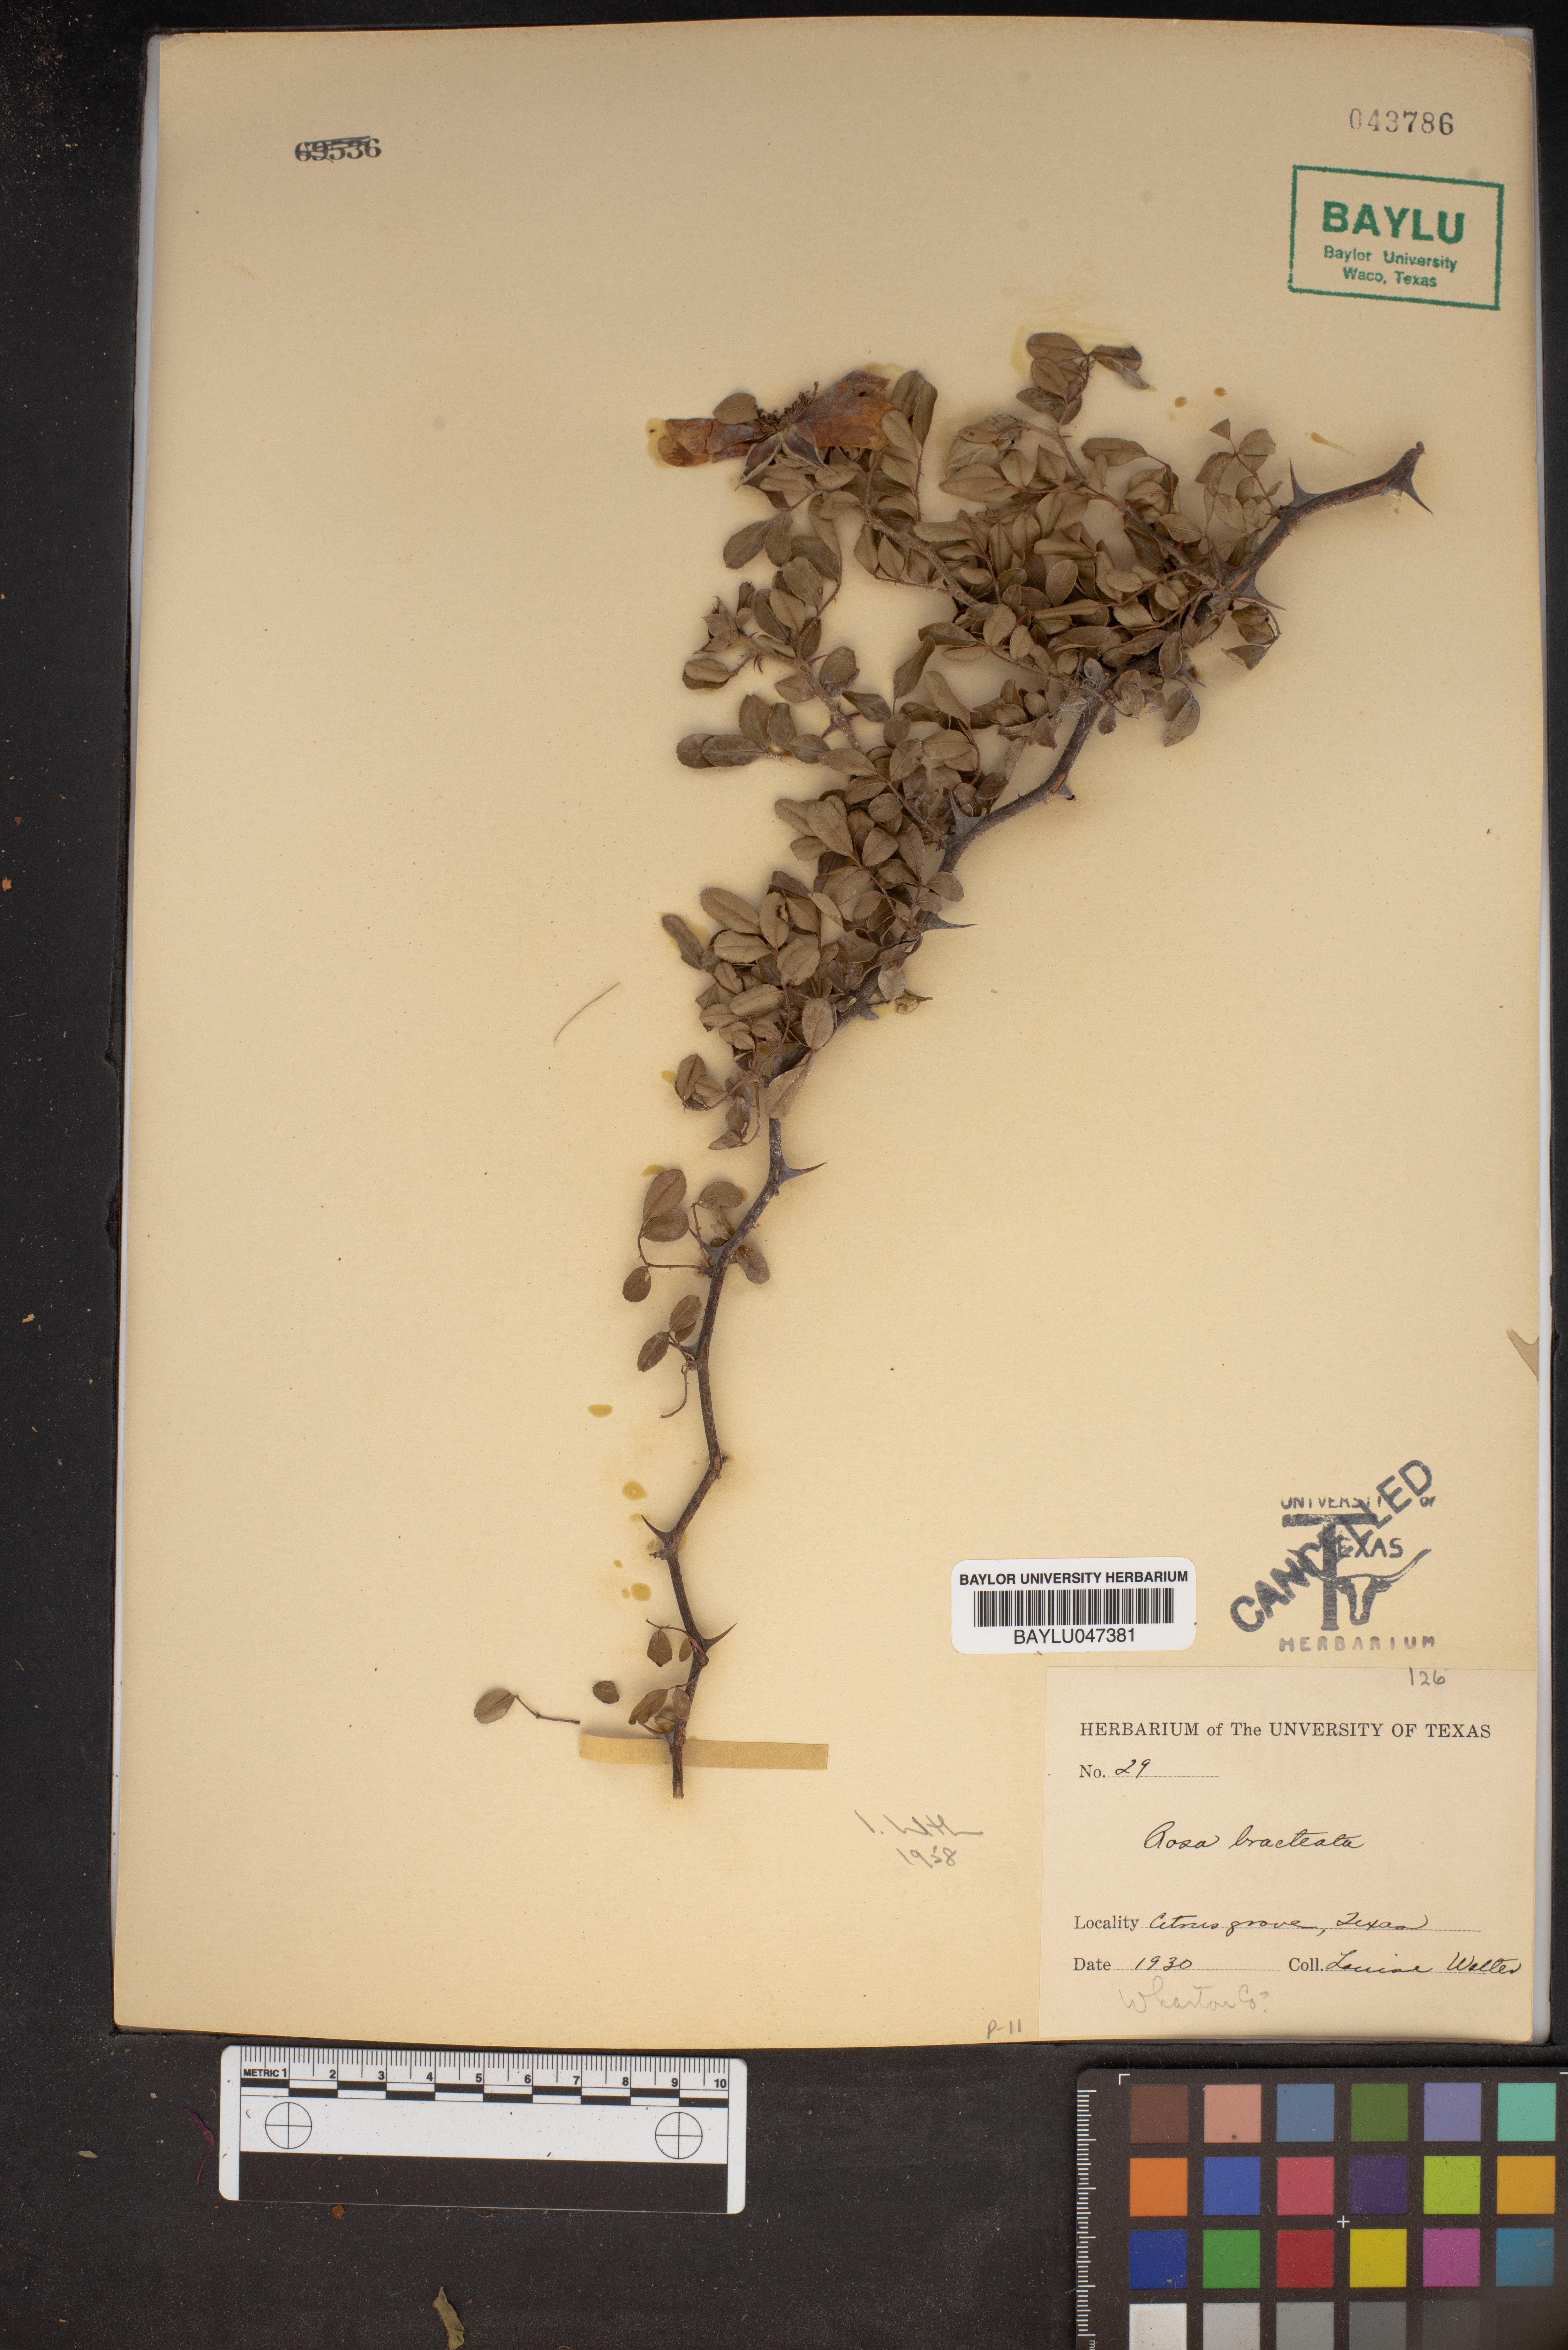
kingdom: Plantae
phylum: Tracheophyta
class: Magnoliopsida
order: Rosales
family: Rosaceae
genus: Rosa
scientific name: Rosa bracteata
